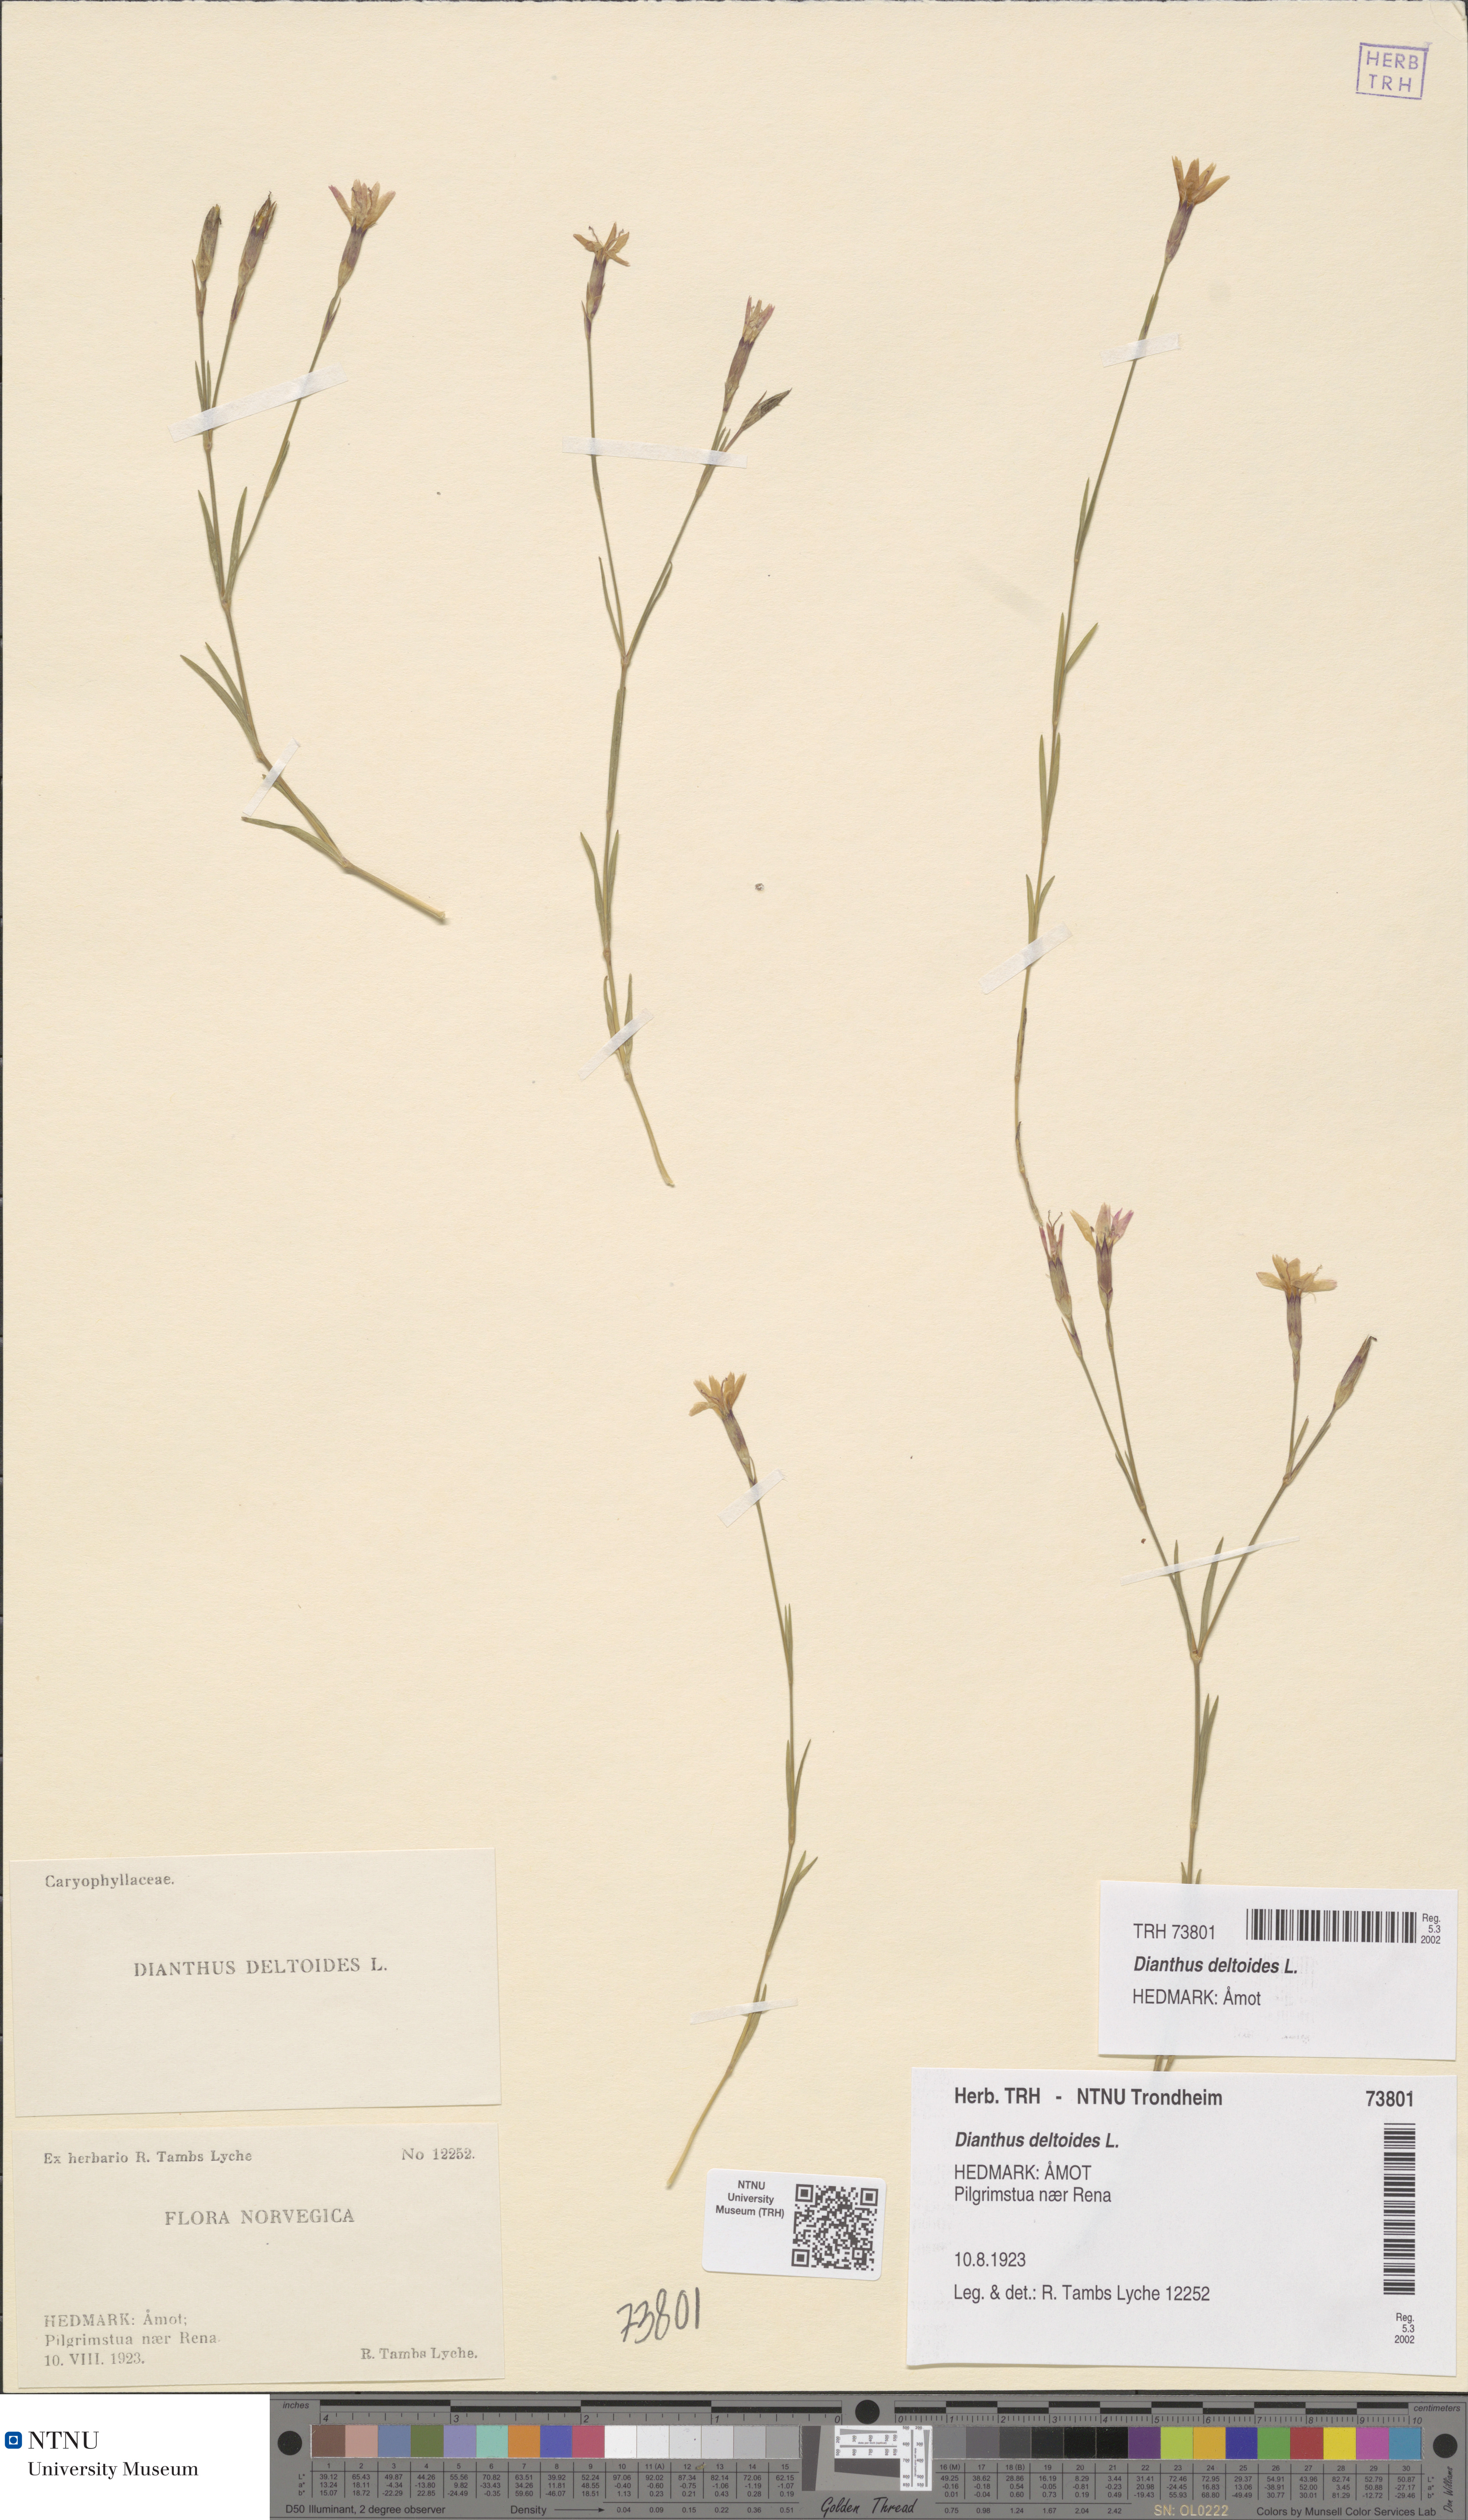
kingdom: Plantae
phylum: Tracheophyta
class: Magnoliopsida
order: Caryophyllales
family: Caryophyllaceae
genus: Dianthus
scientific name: Dianthus deltoides
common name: Maiden pink
